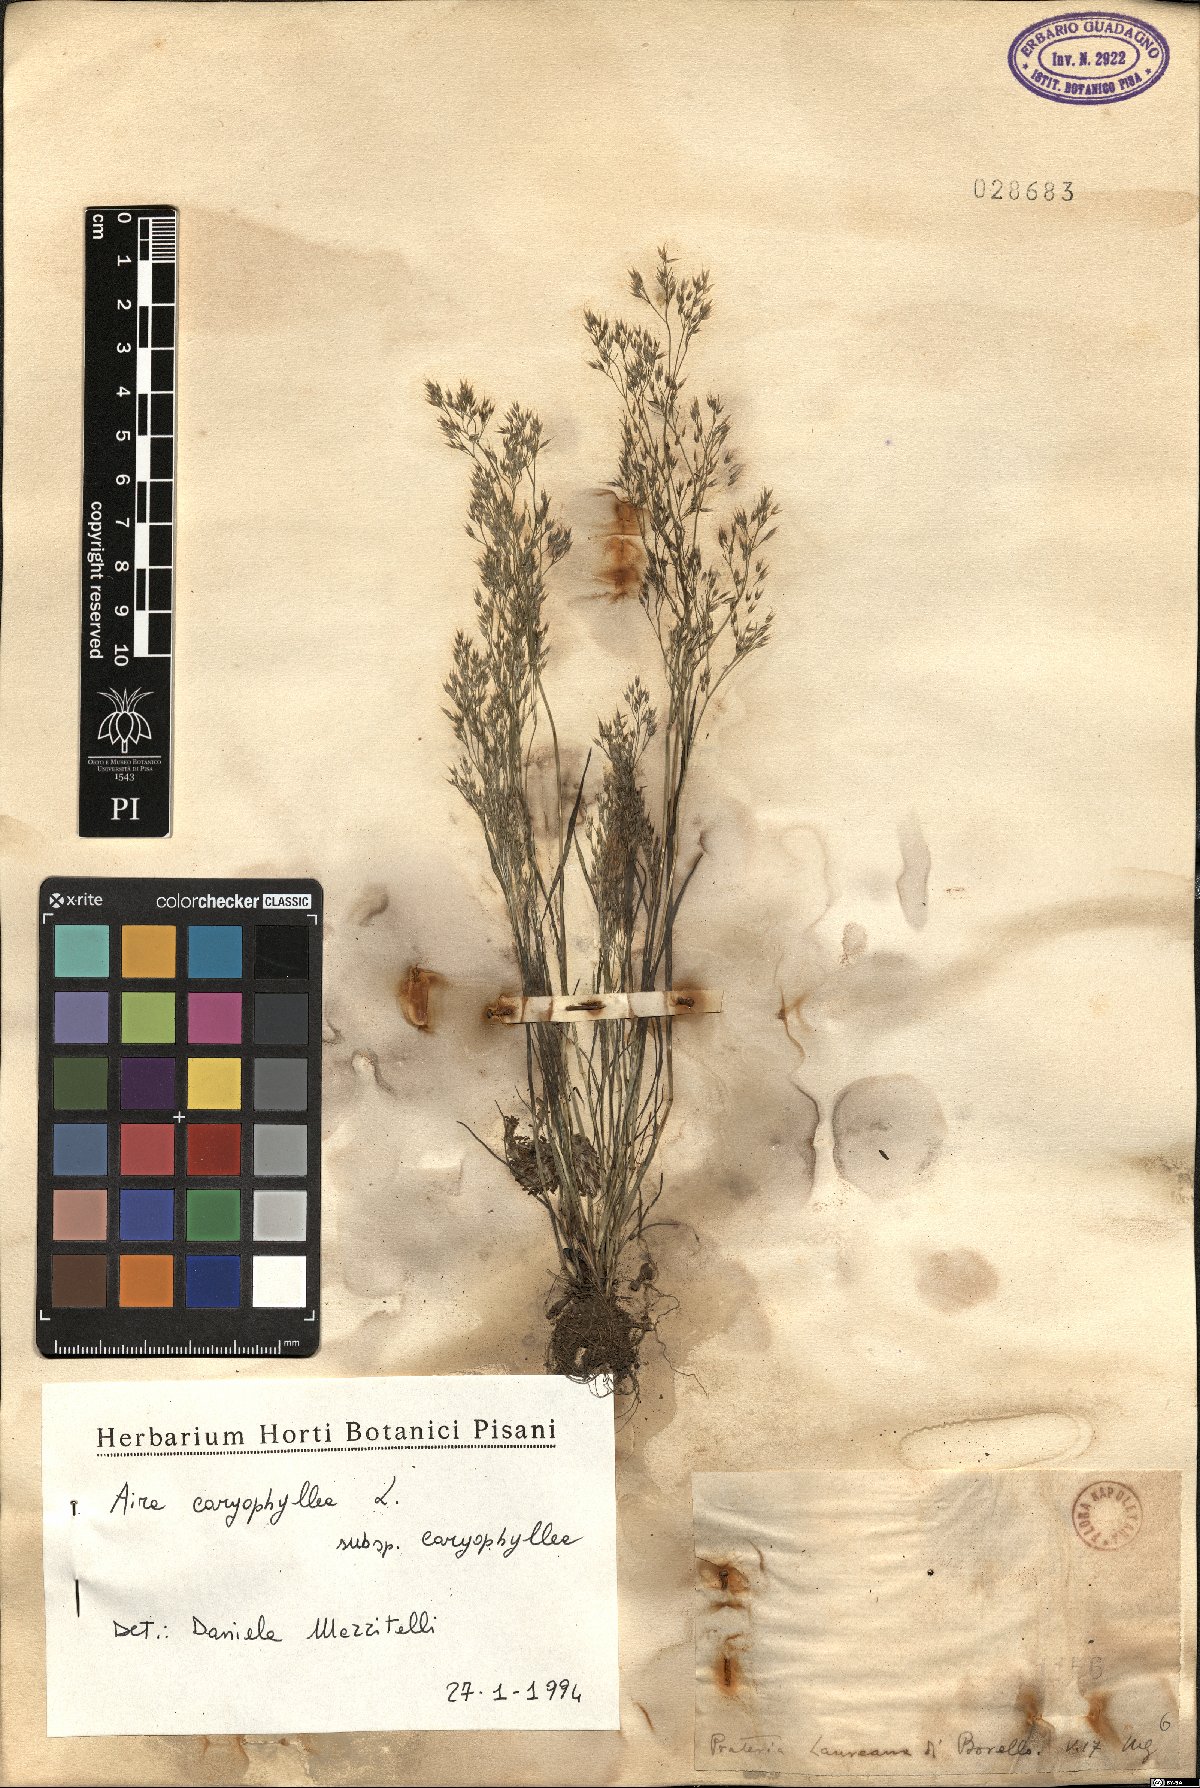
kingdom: Plantae
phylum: Tracheophyta
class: Liliopsida
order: Poales
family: Poaceae
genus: Aira
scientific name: Aira caryophyllea
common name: Silver hairgrass
